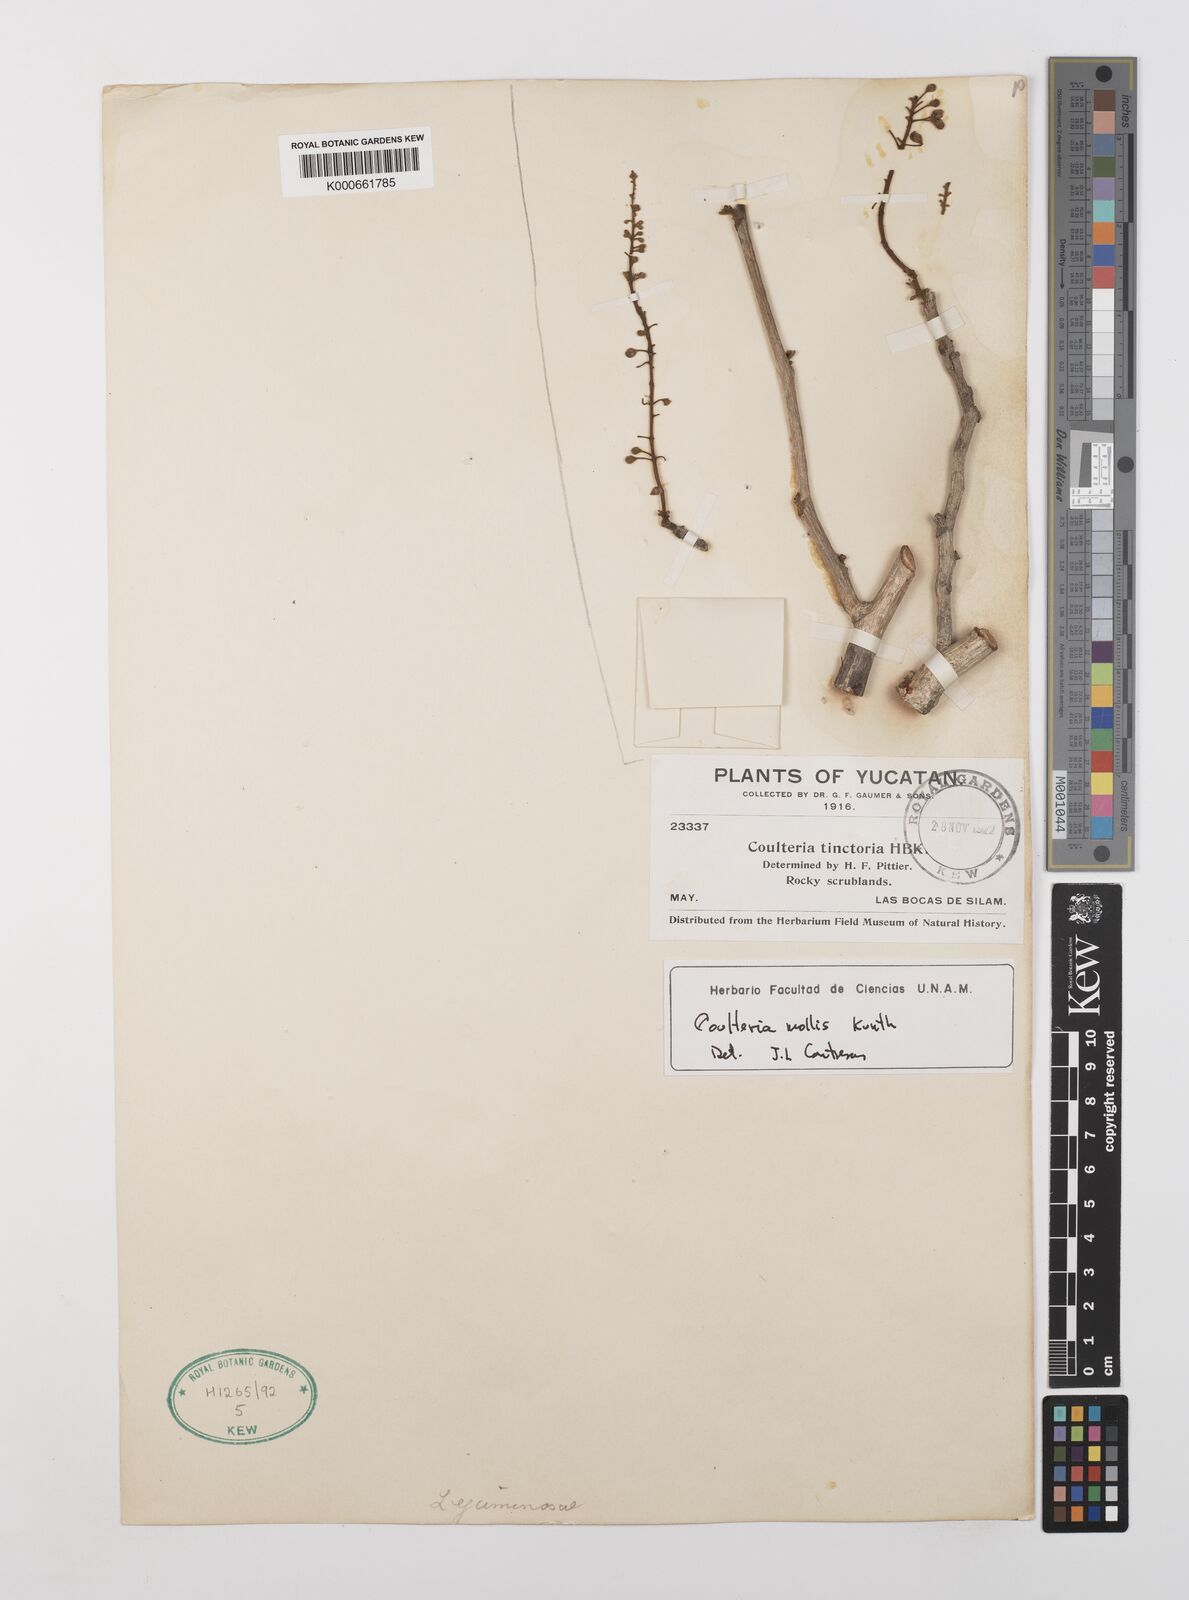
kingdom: Plantae
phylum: Tracheophyta
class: Magnoliopsida
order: Fabales
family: Fabaceae
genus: Coulteria
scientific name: Coulteria mollis
